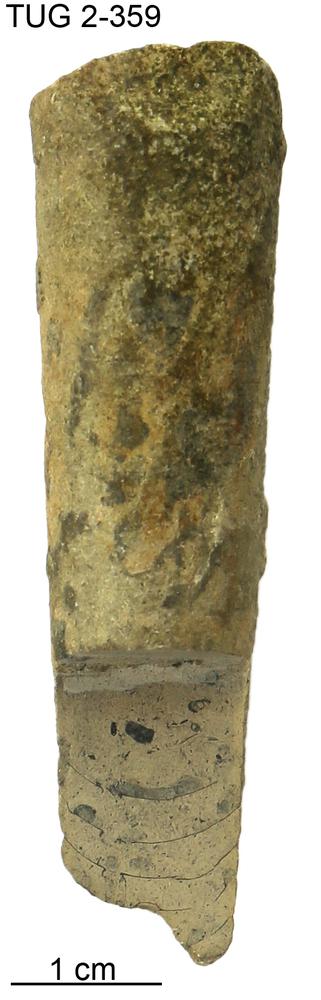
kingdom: Animalia
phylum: Mollusca
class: Cephalopoda
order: Orthocerida
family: Orthoceratidae
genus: Orthoceras
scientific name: Orthoceras regulare
